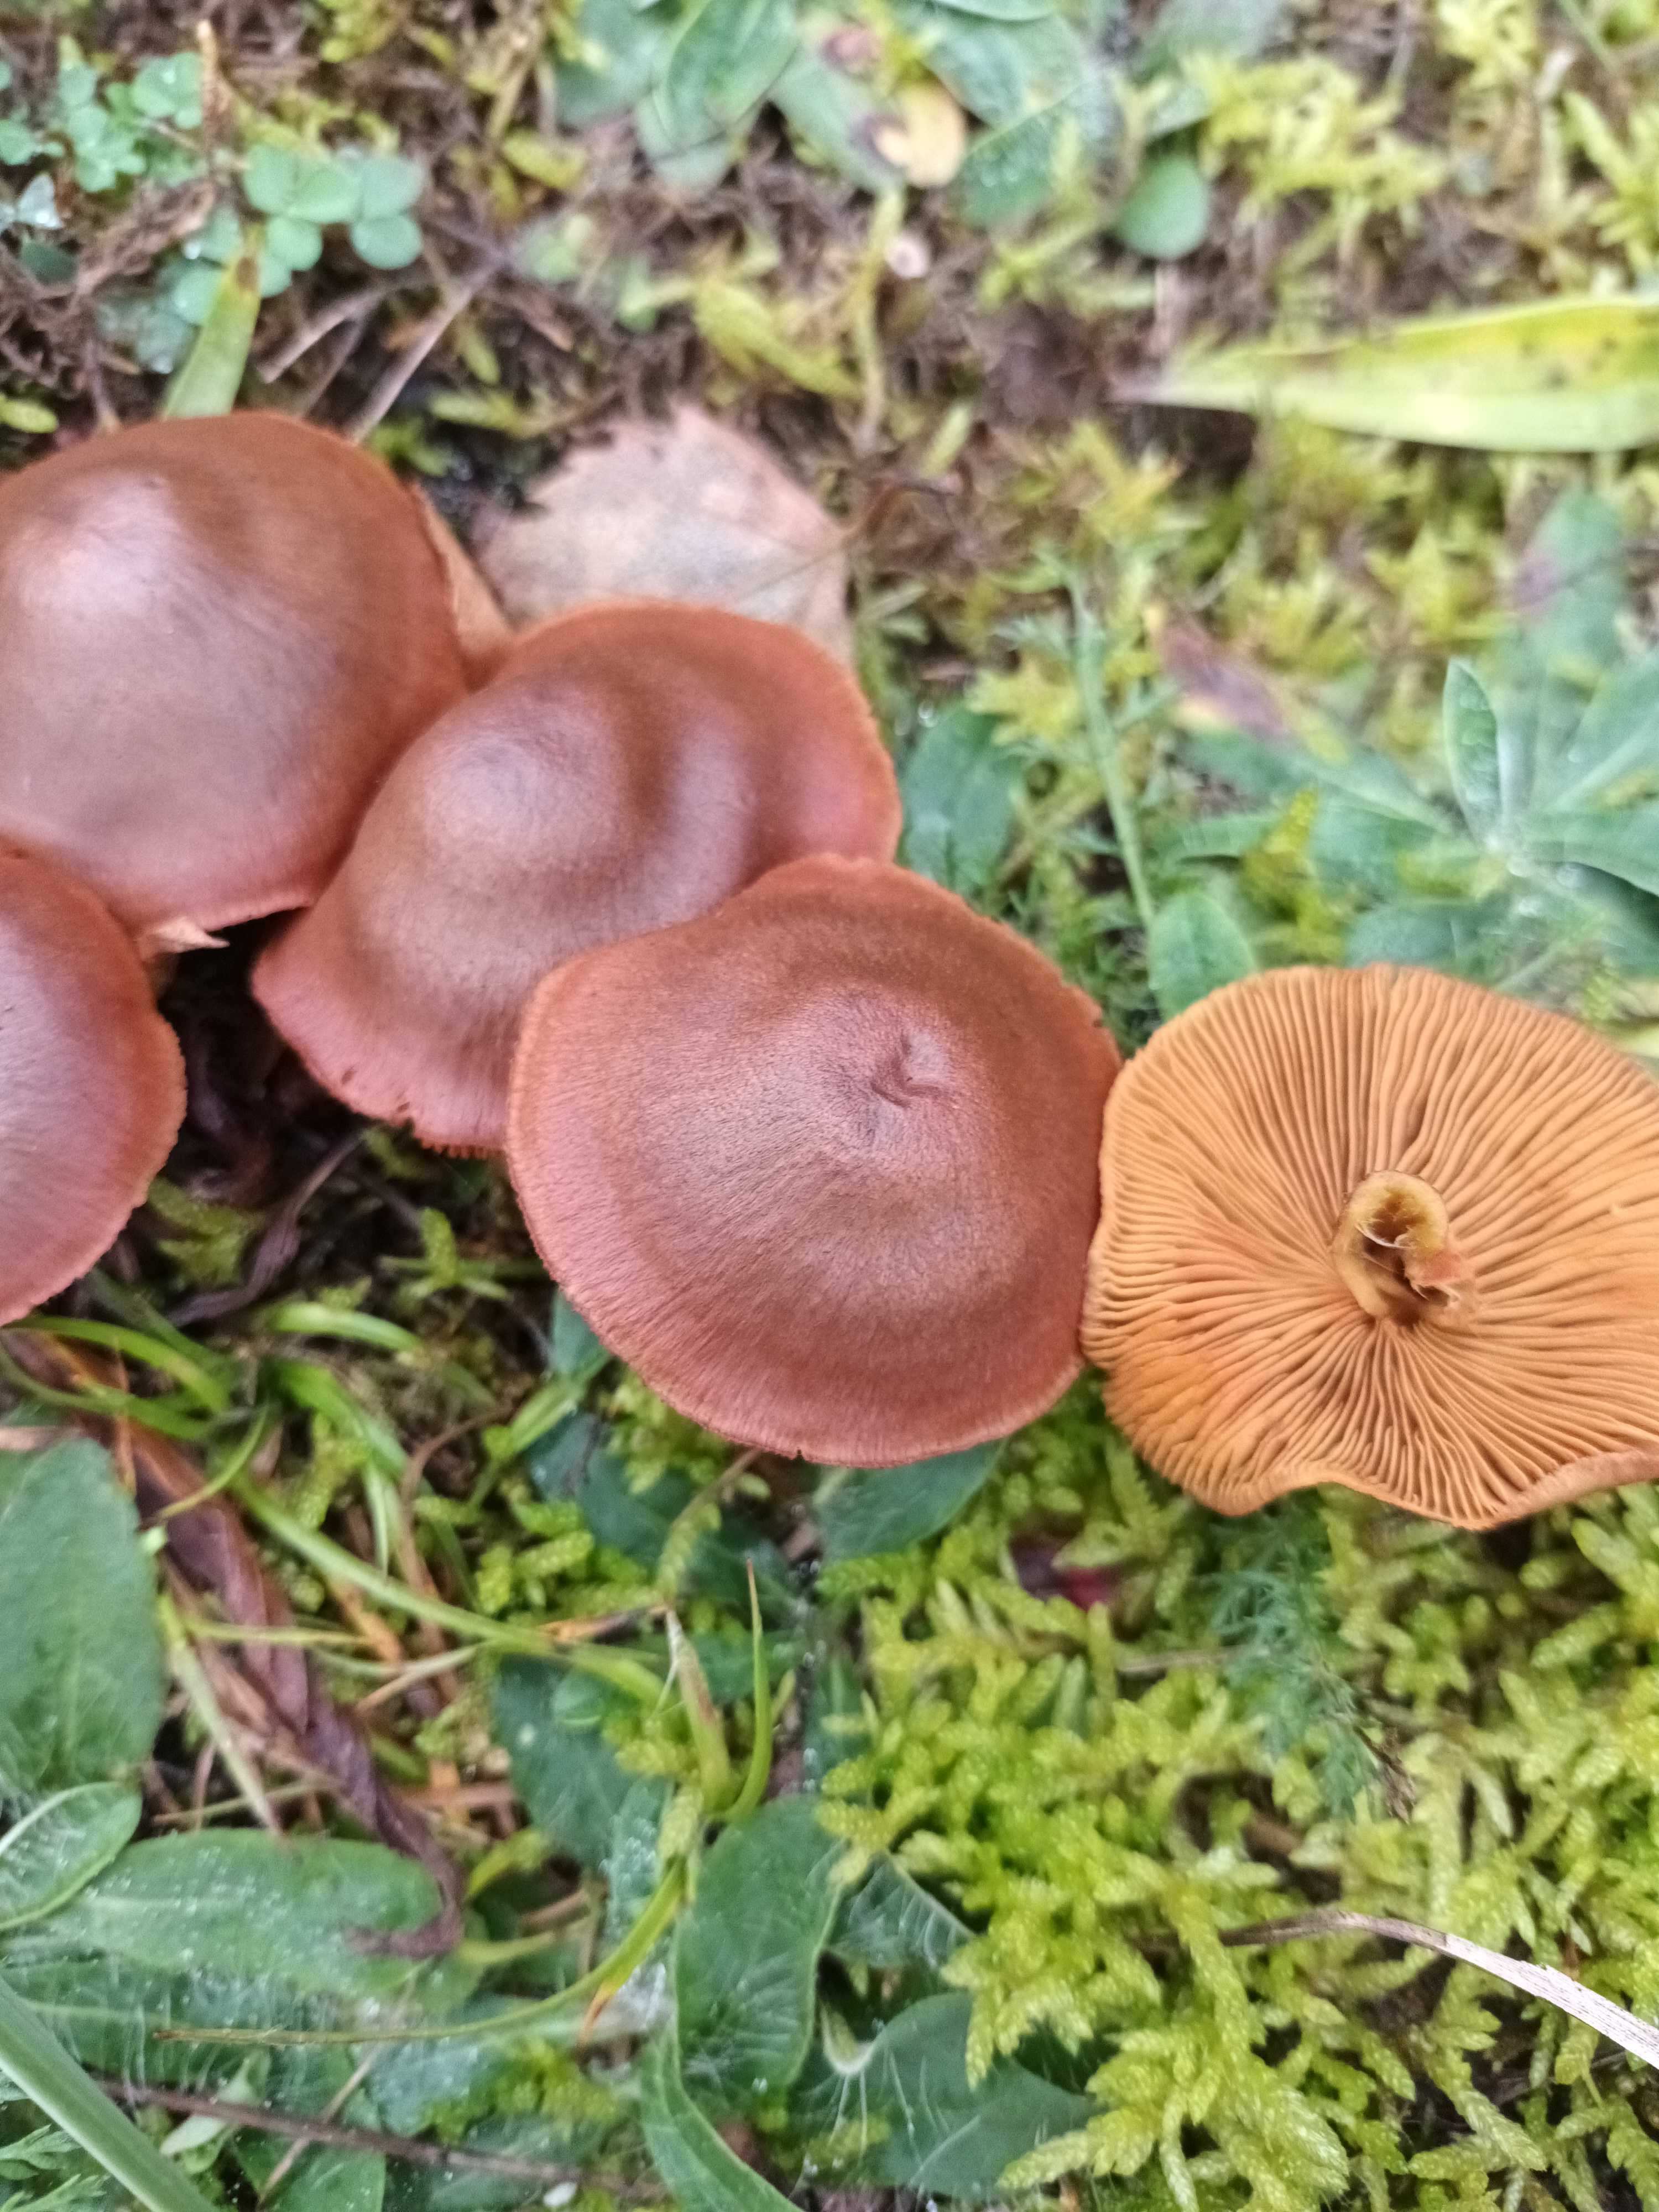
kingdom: Fungi
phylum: Basidiomycota
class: Agaricomycetes
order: Agaricales
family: Cortinariaceae
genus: Cortinarius
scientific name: Cortinarius
